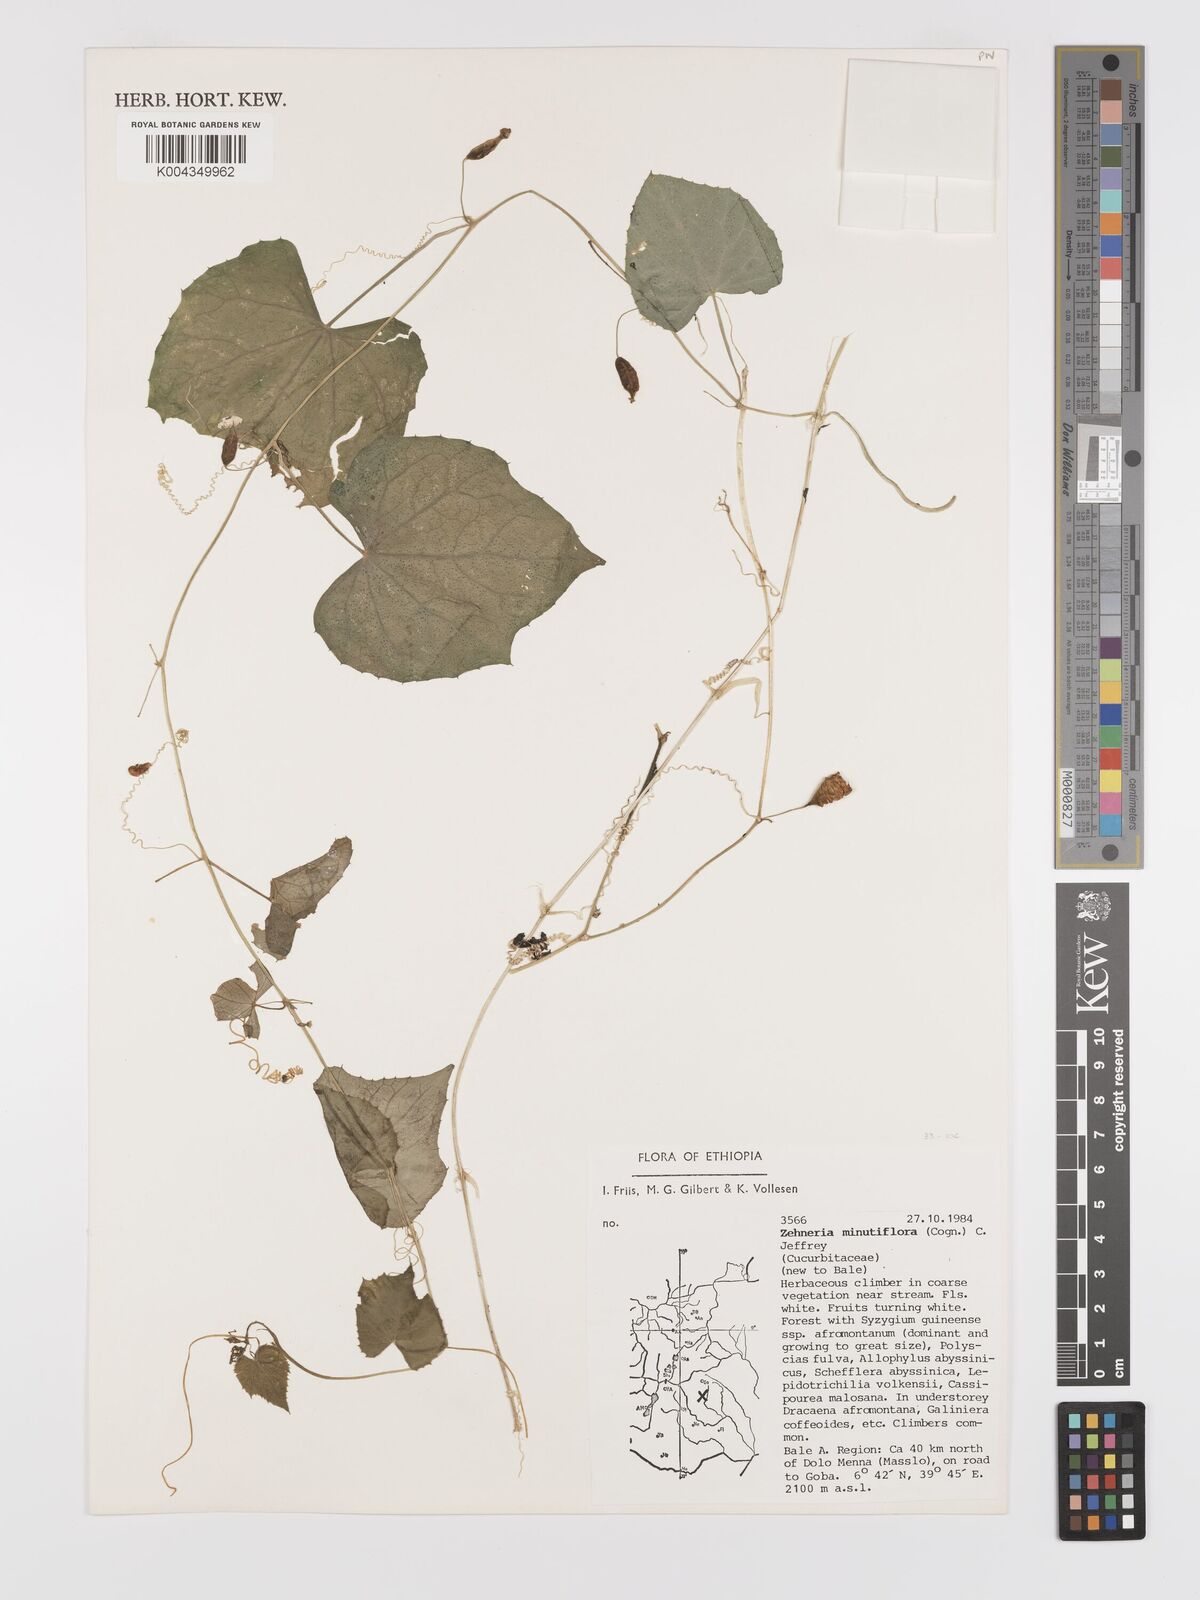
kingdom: Plantae
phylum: Tracheophyta
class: Magnoliopsida
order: Cucurbitales
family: Cucurbitaceae
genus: Zehneria
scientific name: Zehneria minutiflora
